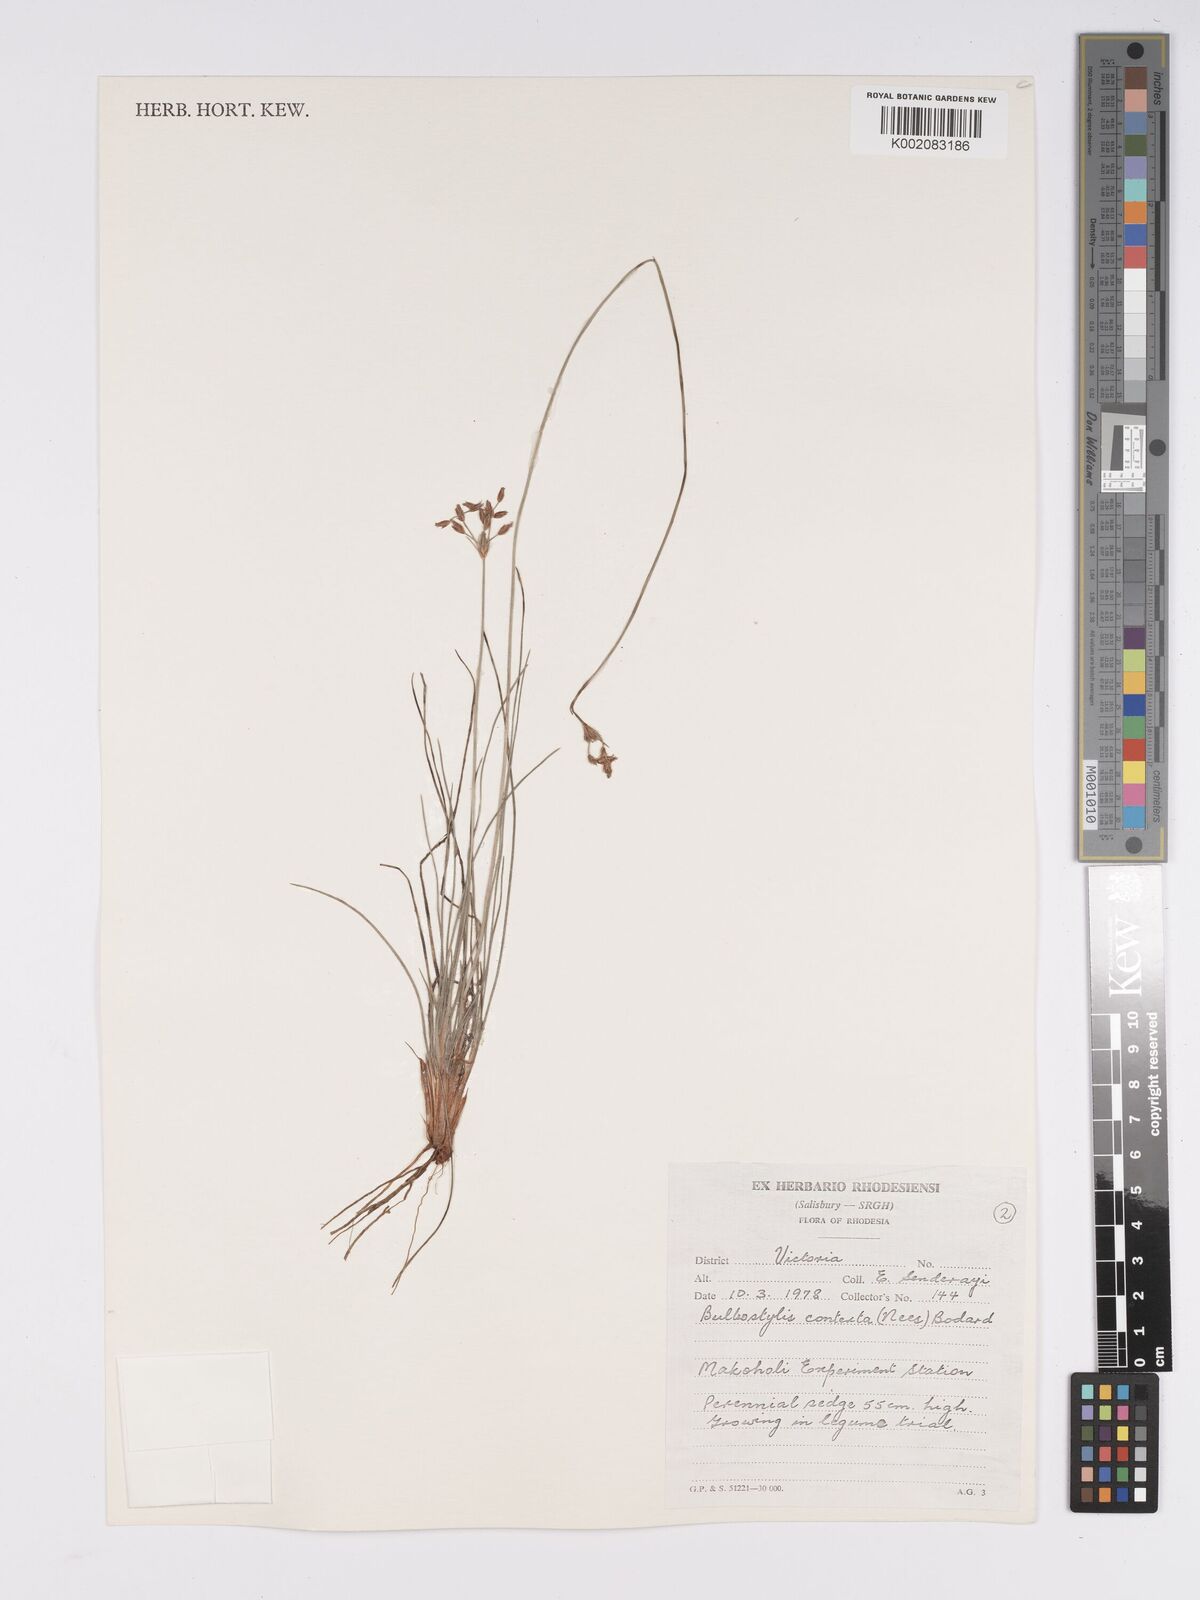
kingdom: Plantae
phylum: Tracheophyta
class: Liliopsida
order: Poales
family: Cyperaceae
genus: Bulbostylis
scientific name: Bulbostylis contexta
